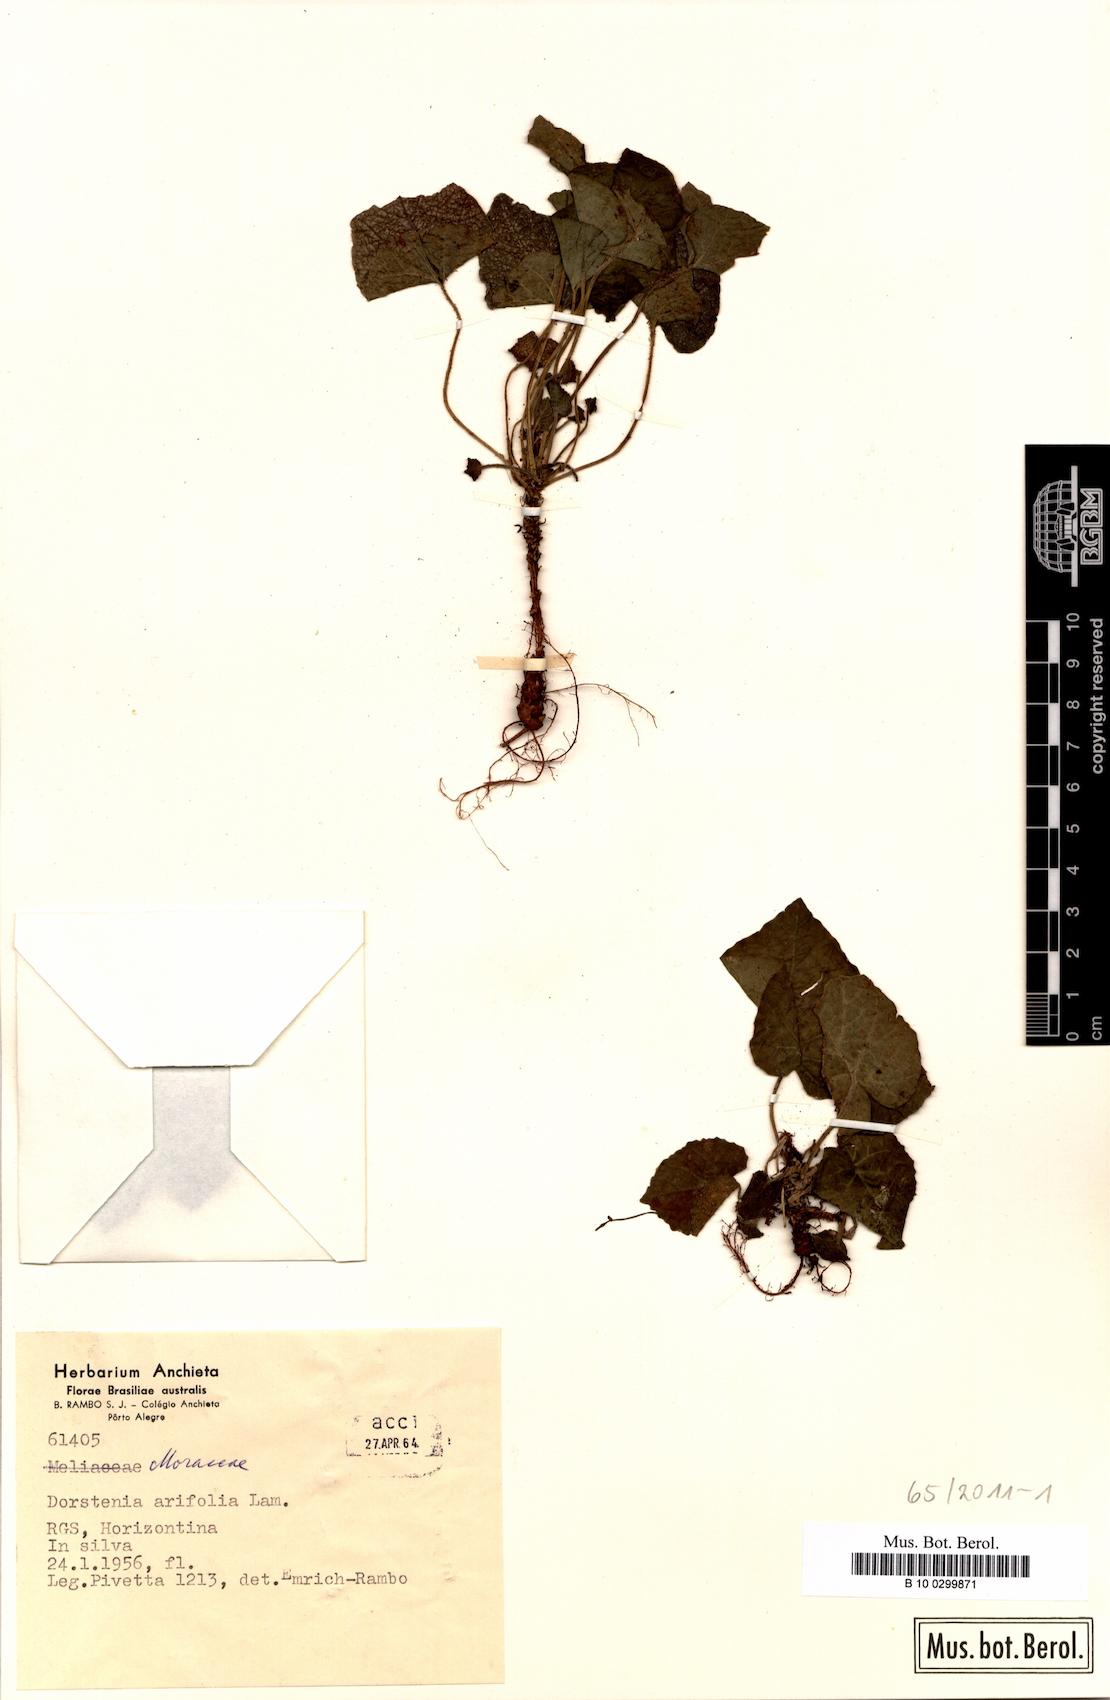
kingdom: Plantae
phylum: Tracheophyta
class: Magnoliopsida
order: Rosales
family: Moraceae
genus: Dorstenia
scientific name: Dorstenia arifolia
